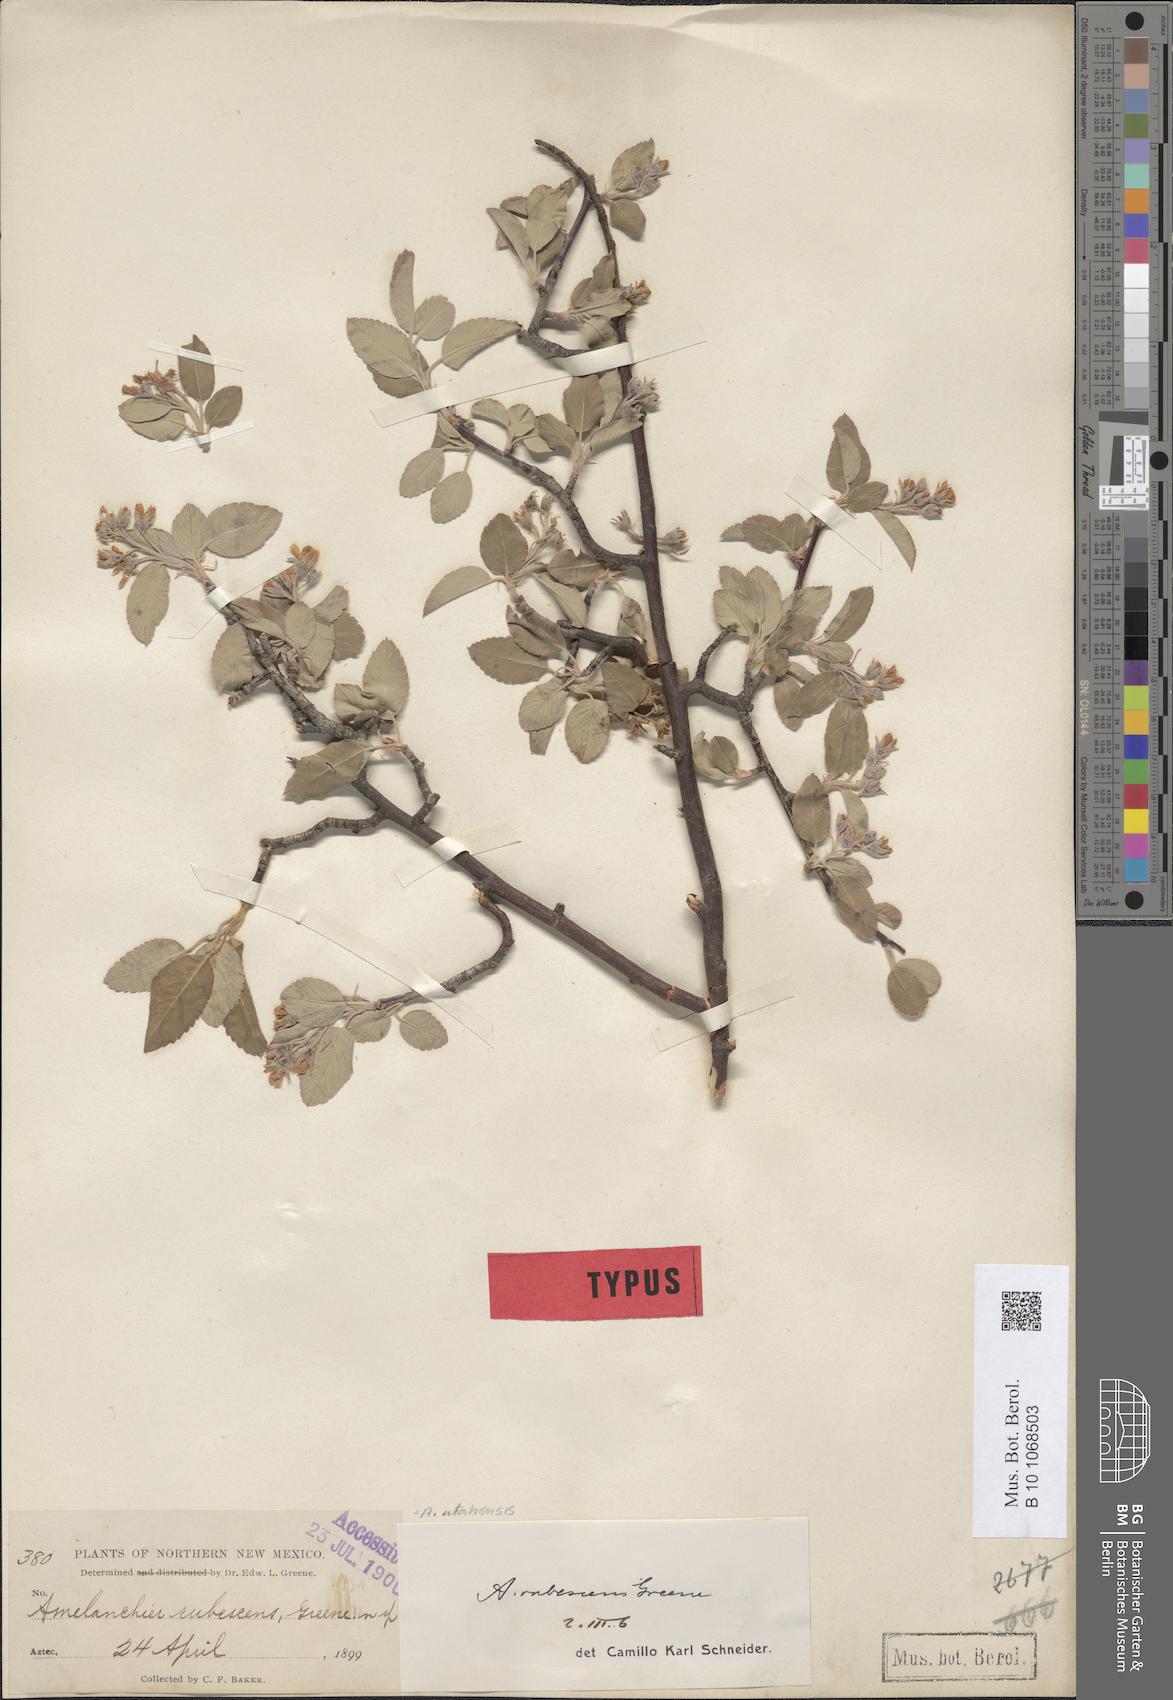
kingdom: Plantae
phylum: Tracheophyta
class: Magnoliopsida
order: Rosales
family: Rosaceae
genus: Amelanchier
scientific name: Amelanchier utahensis
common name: Utah serviceberry
